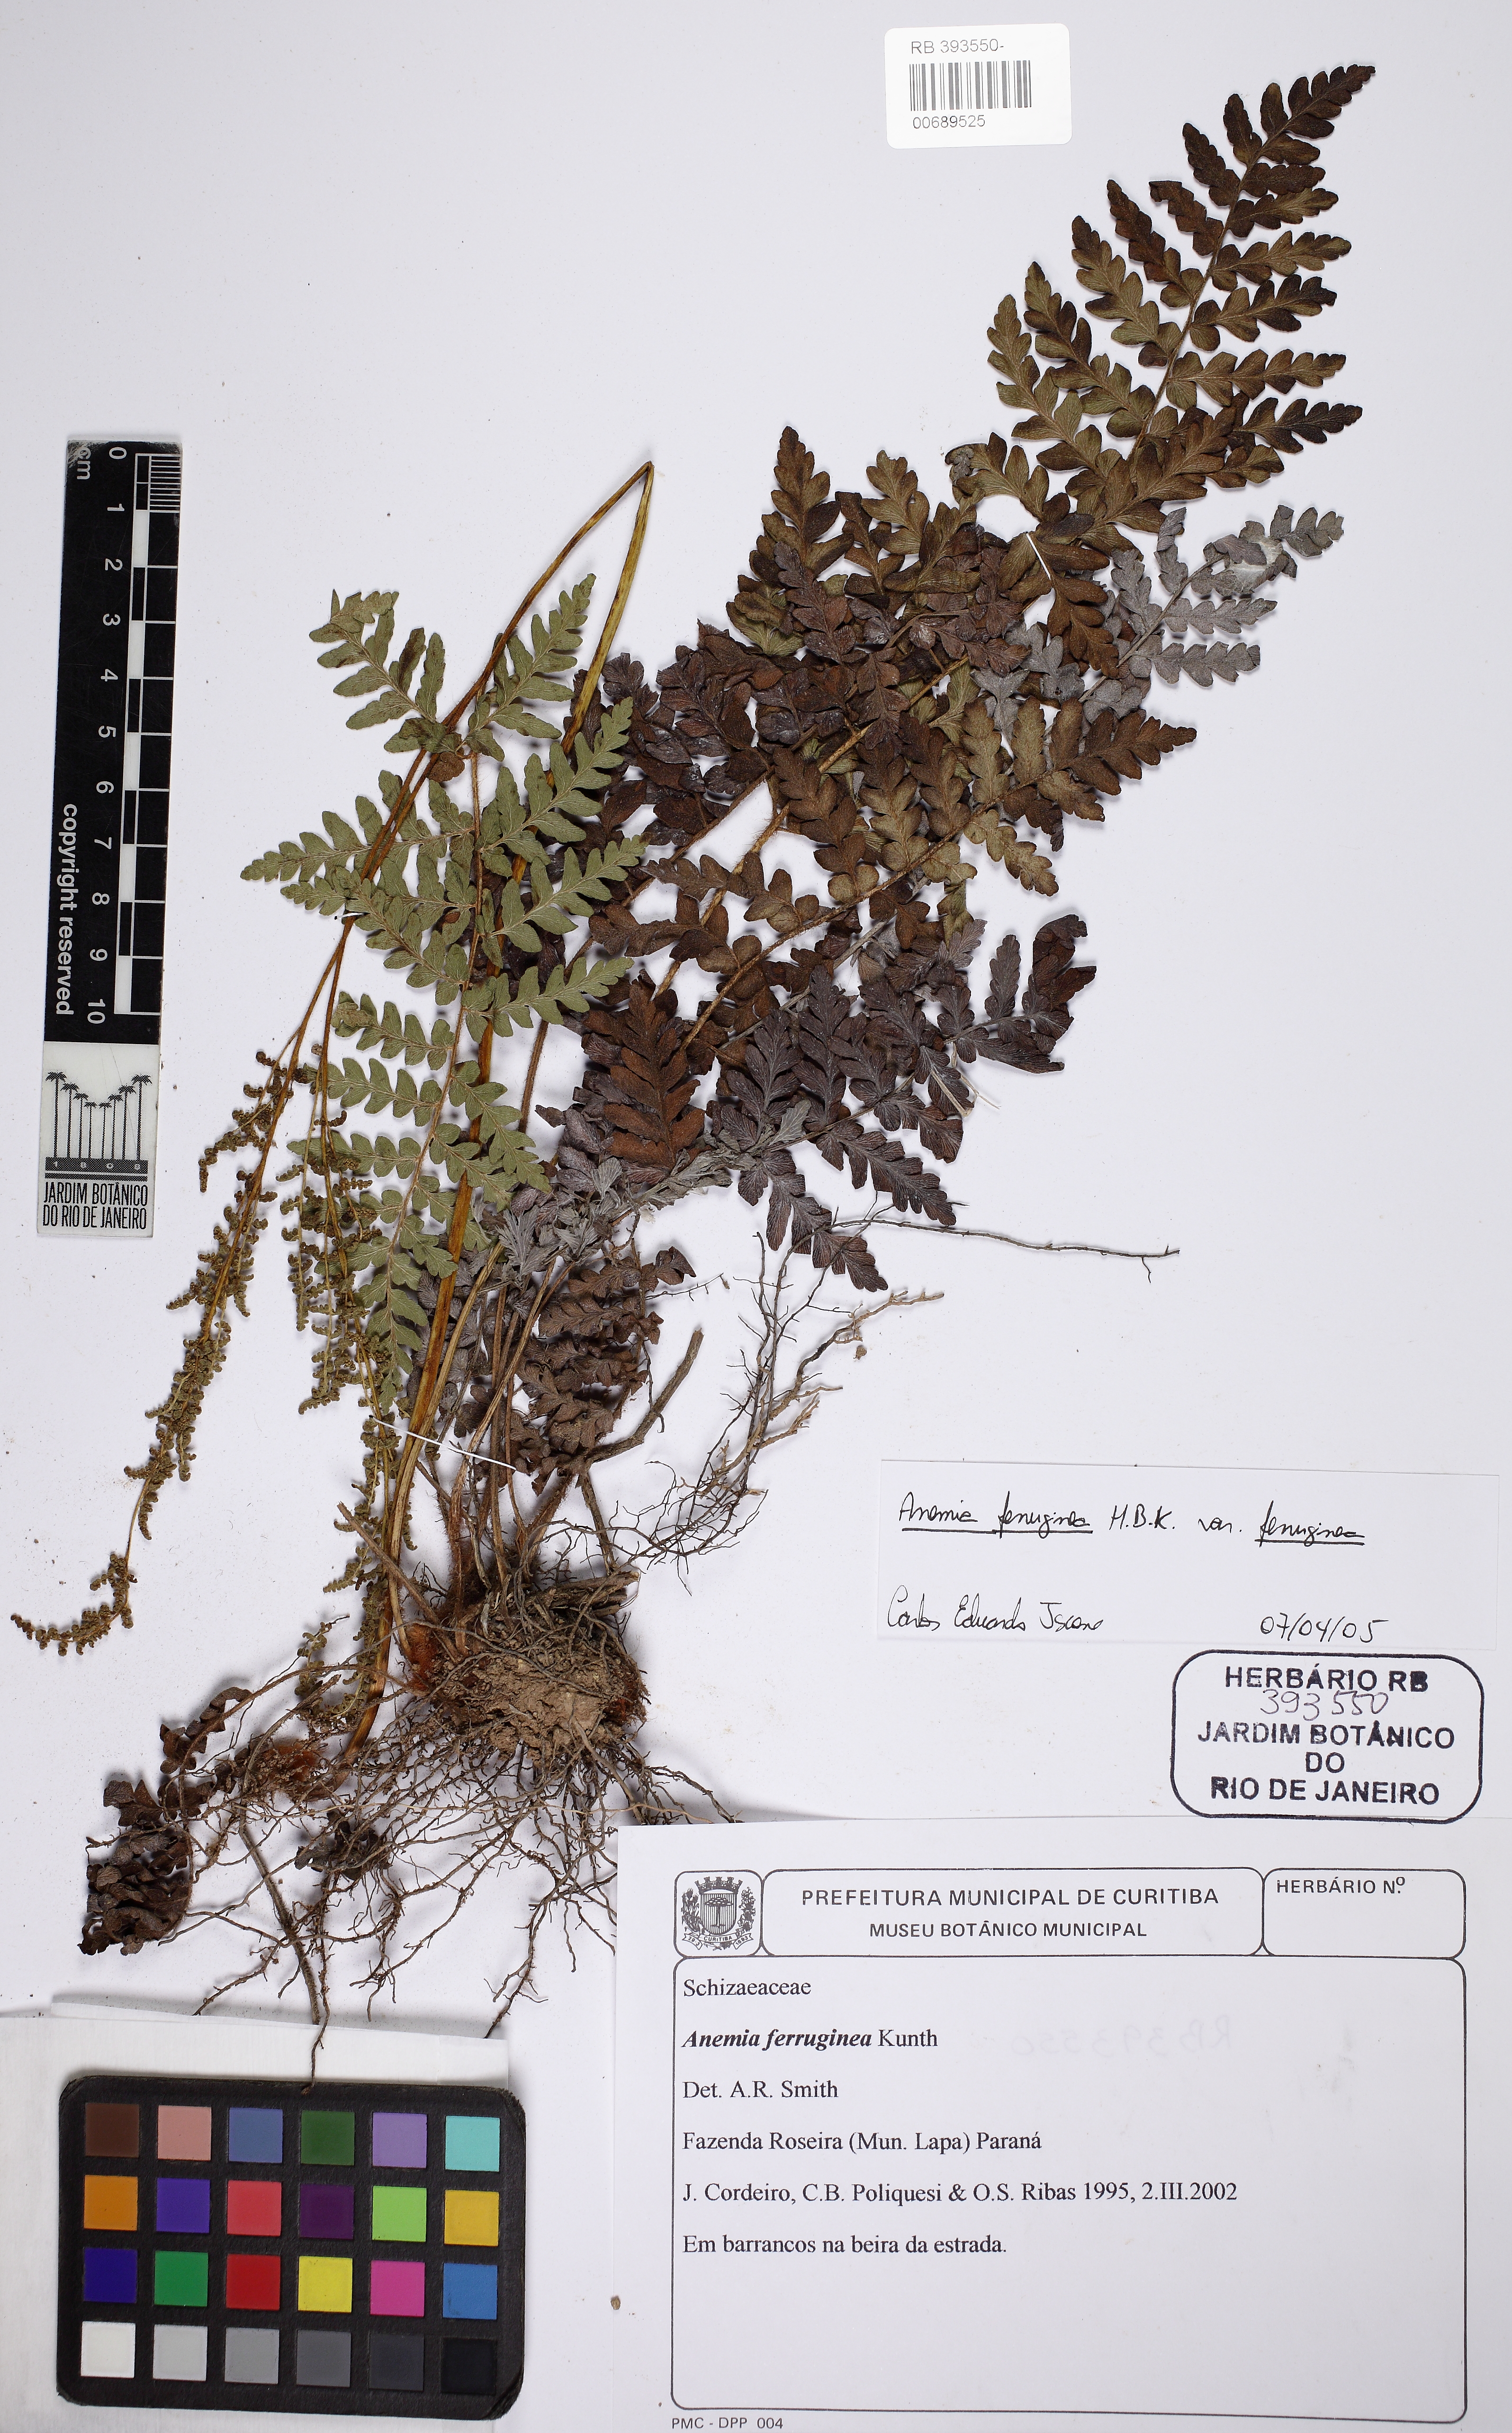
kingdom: Plantae
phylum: Tracheophyta
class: Polypodiopsida
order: Schizaeales
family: Anemiaceae
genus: Anemia
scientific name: Anemia ferruginea
